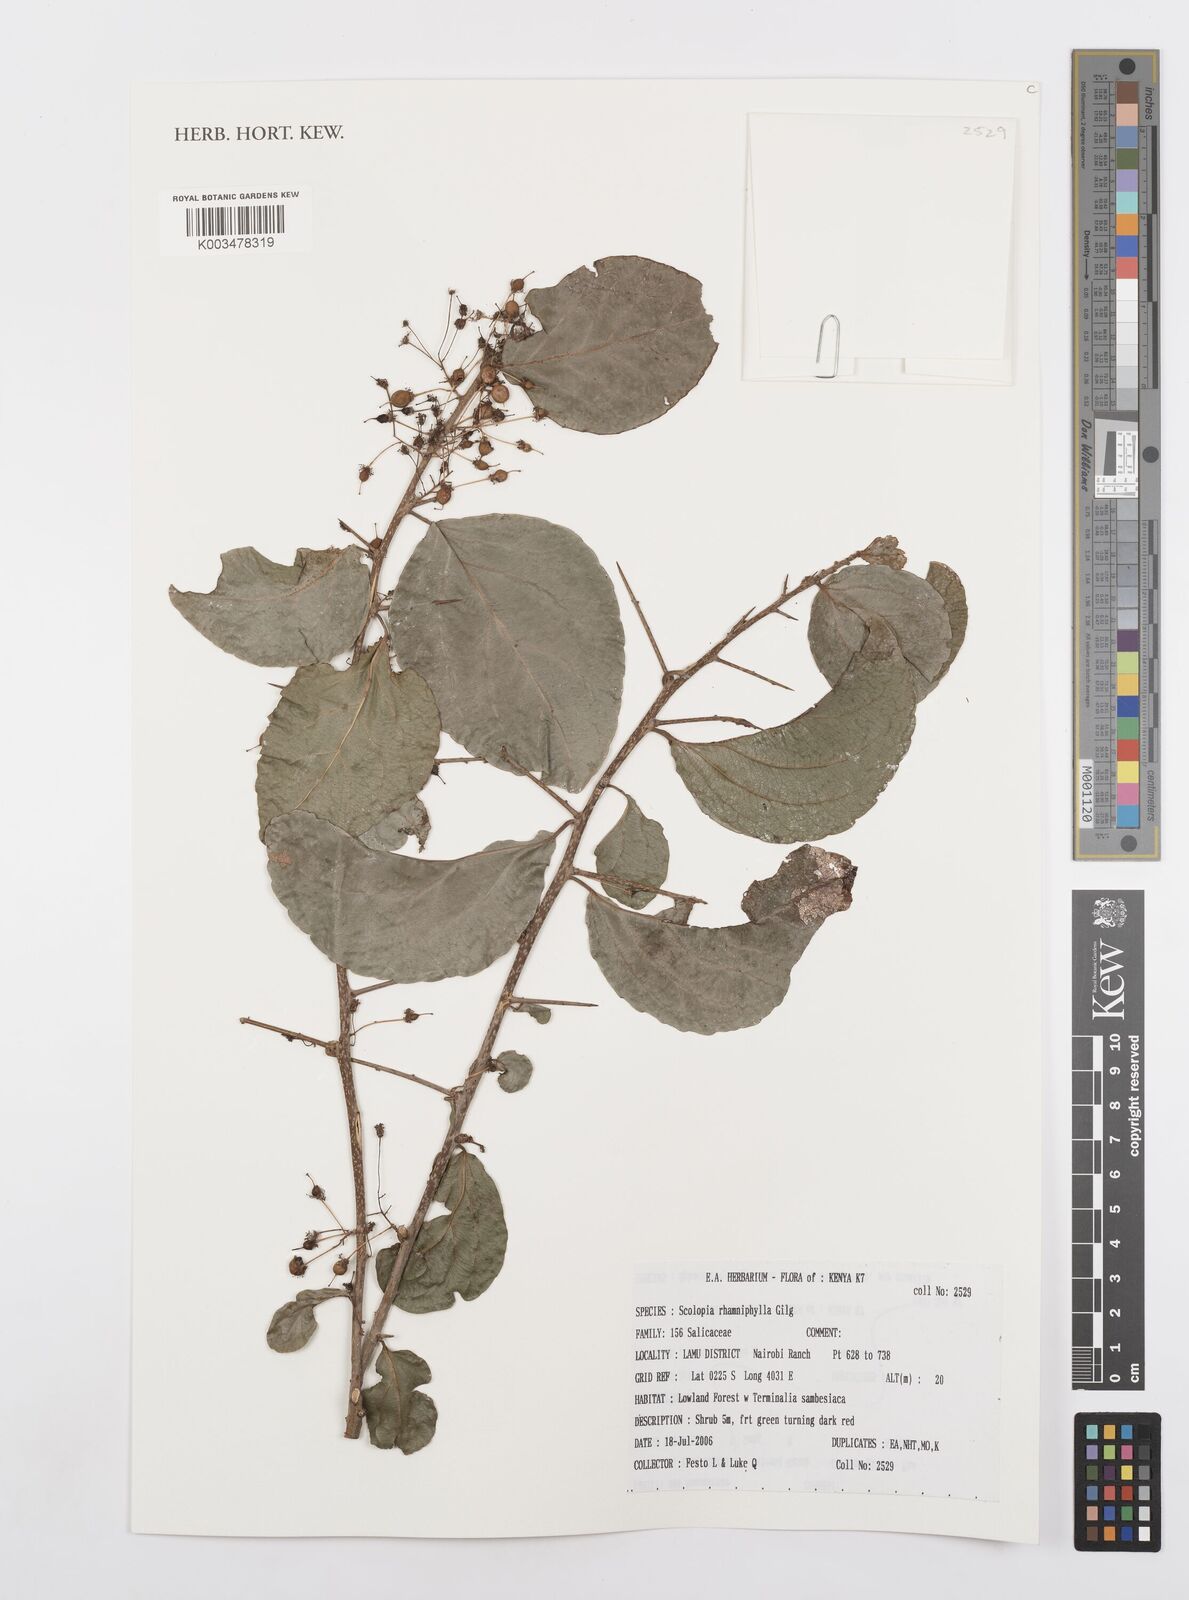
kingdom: Plantae
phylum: Tracheophyta
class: Magnoliopsida
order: Malpighiales
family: Salicaceae
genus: Scolopia
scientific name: Scolopia rhamniphylla
